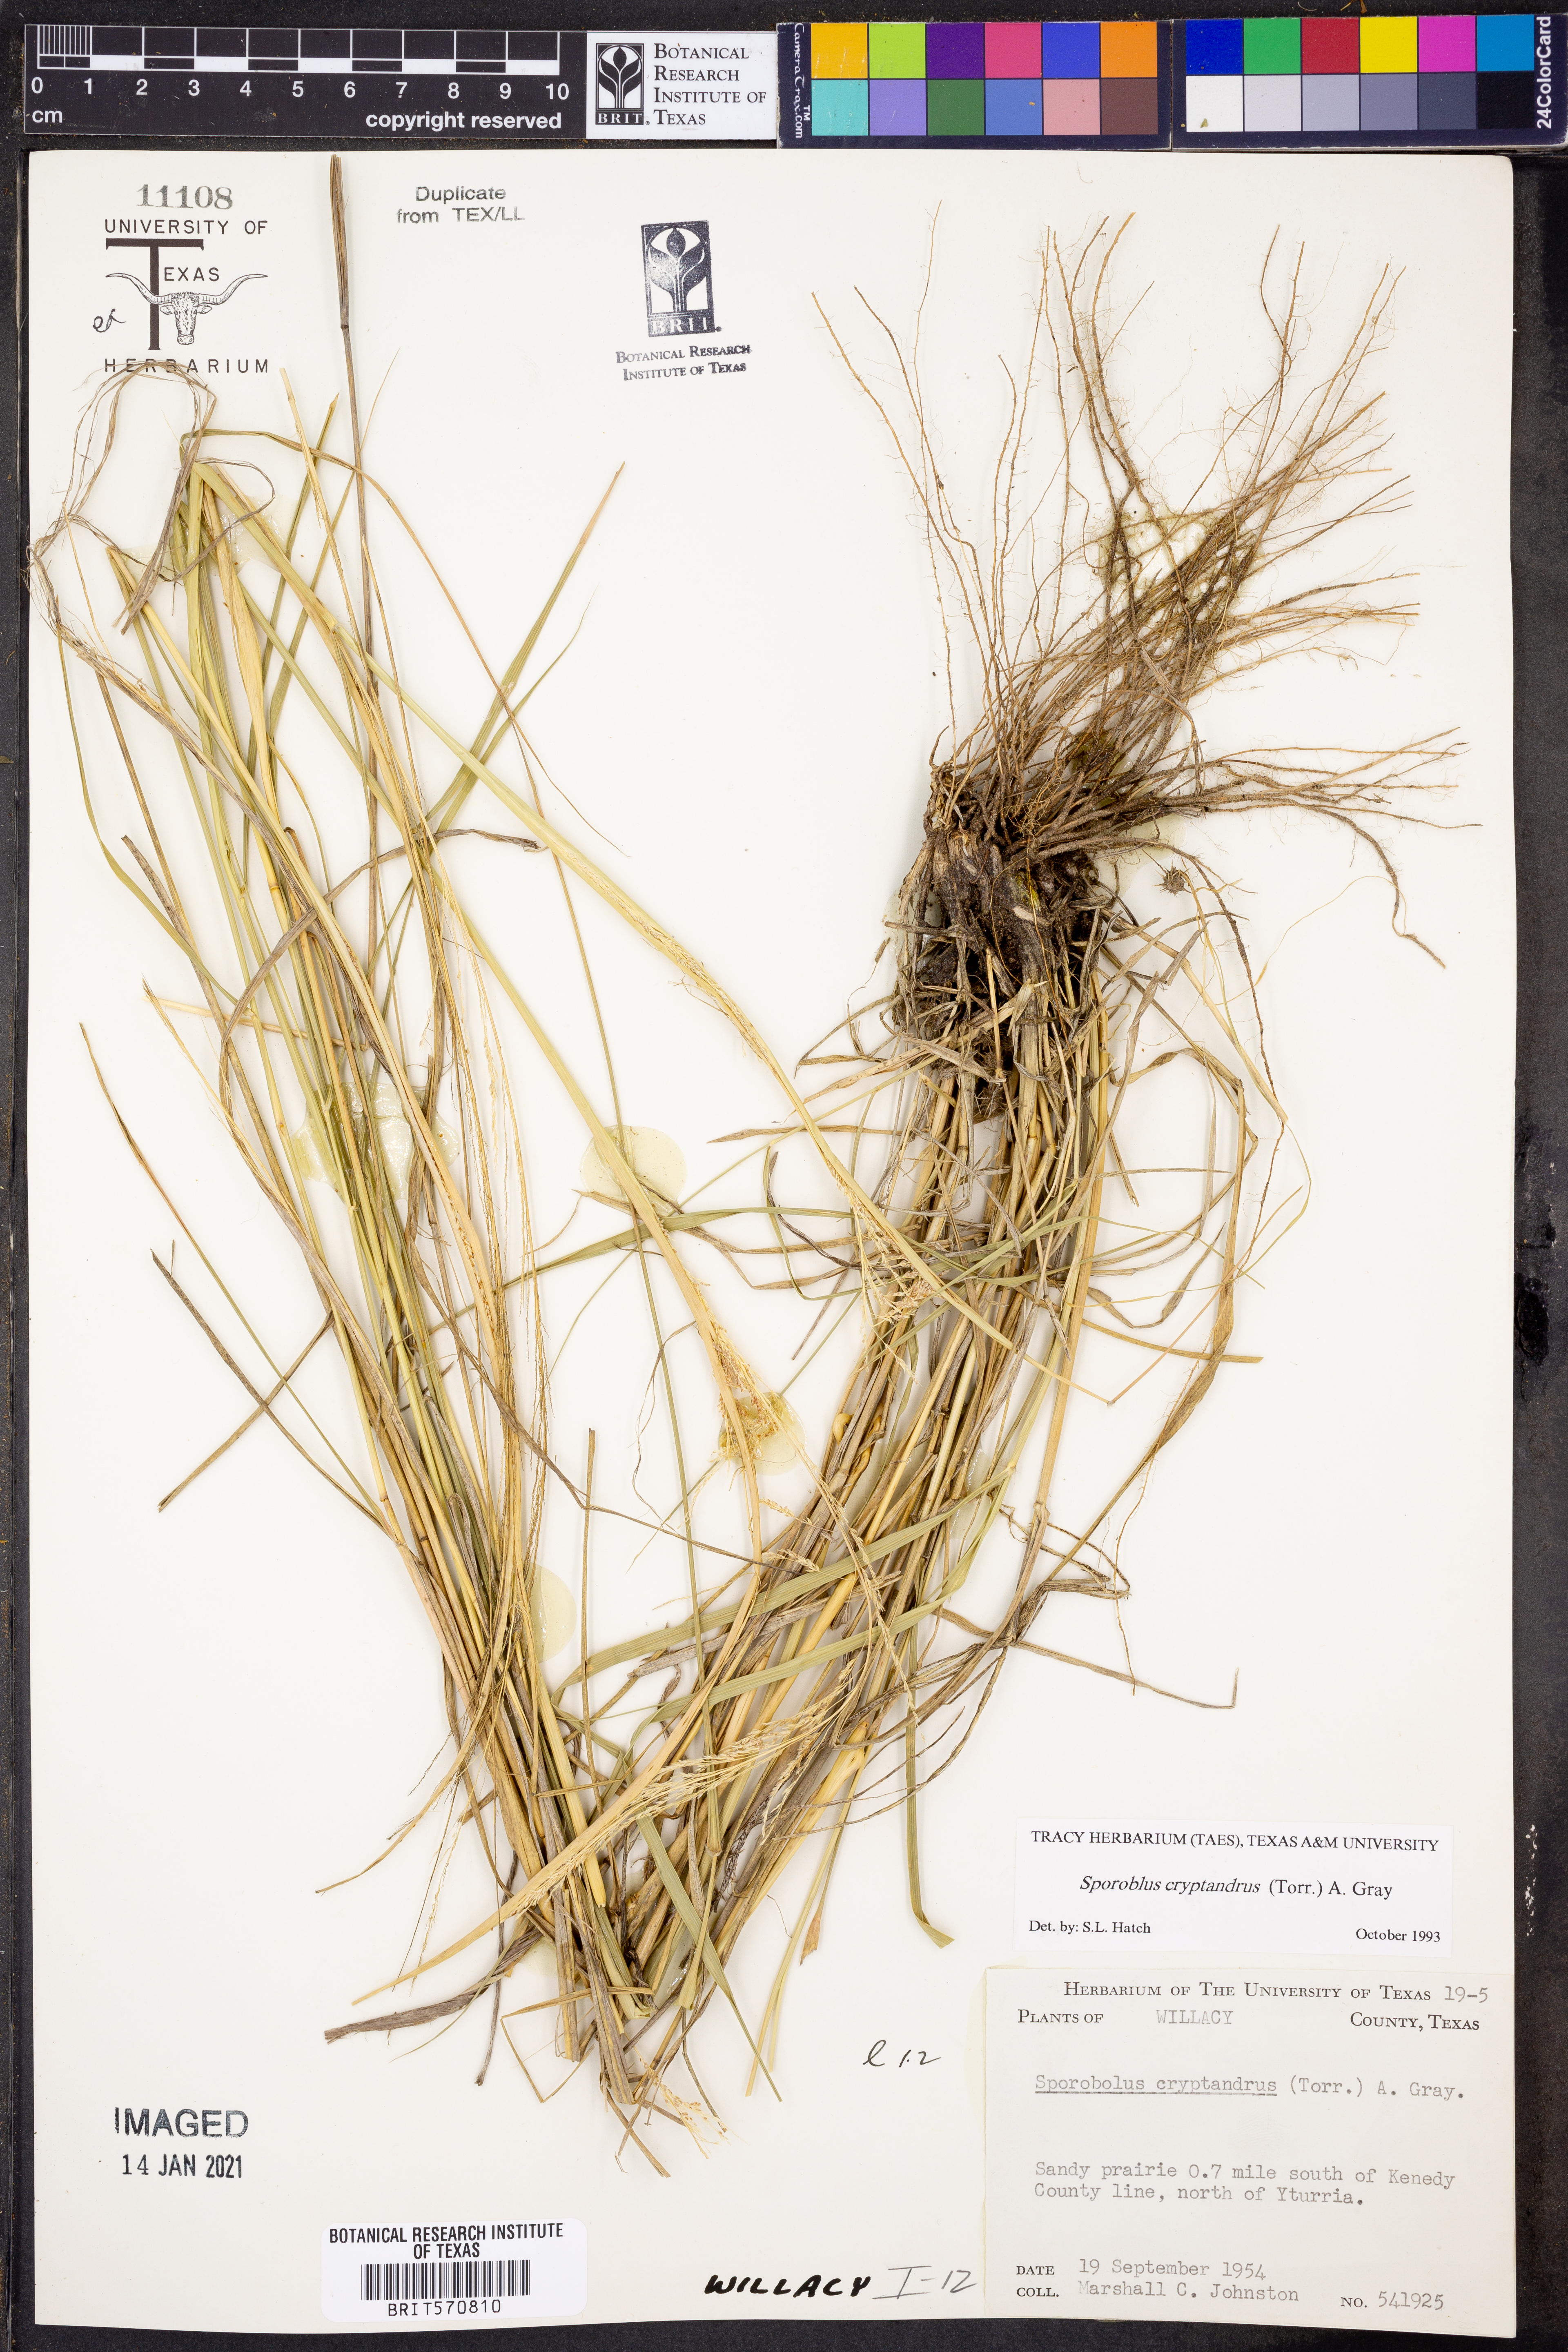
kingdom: Plantae
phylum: Tracheophyta
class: Liliopsida
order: Poales
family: Poaceae
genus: Sporobolus
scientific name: Sporobolus cryptandrus
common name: Sand dropseed
